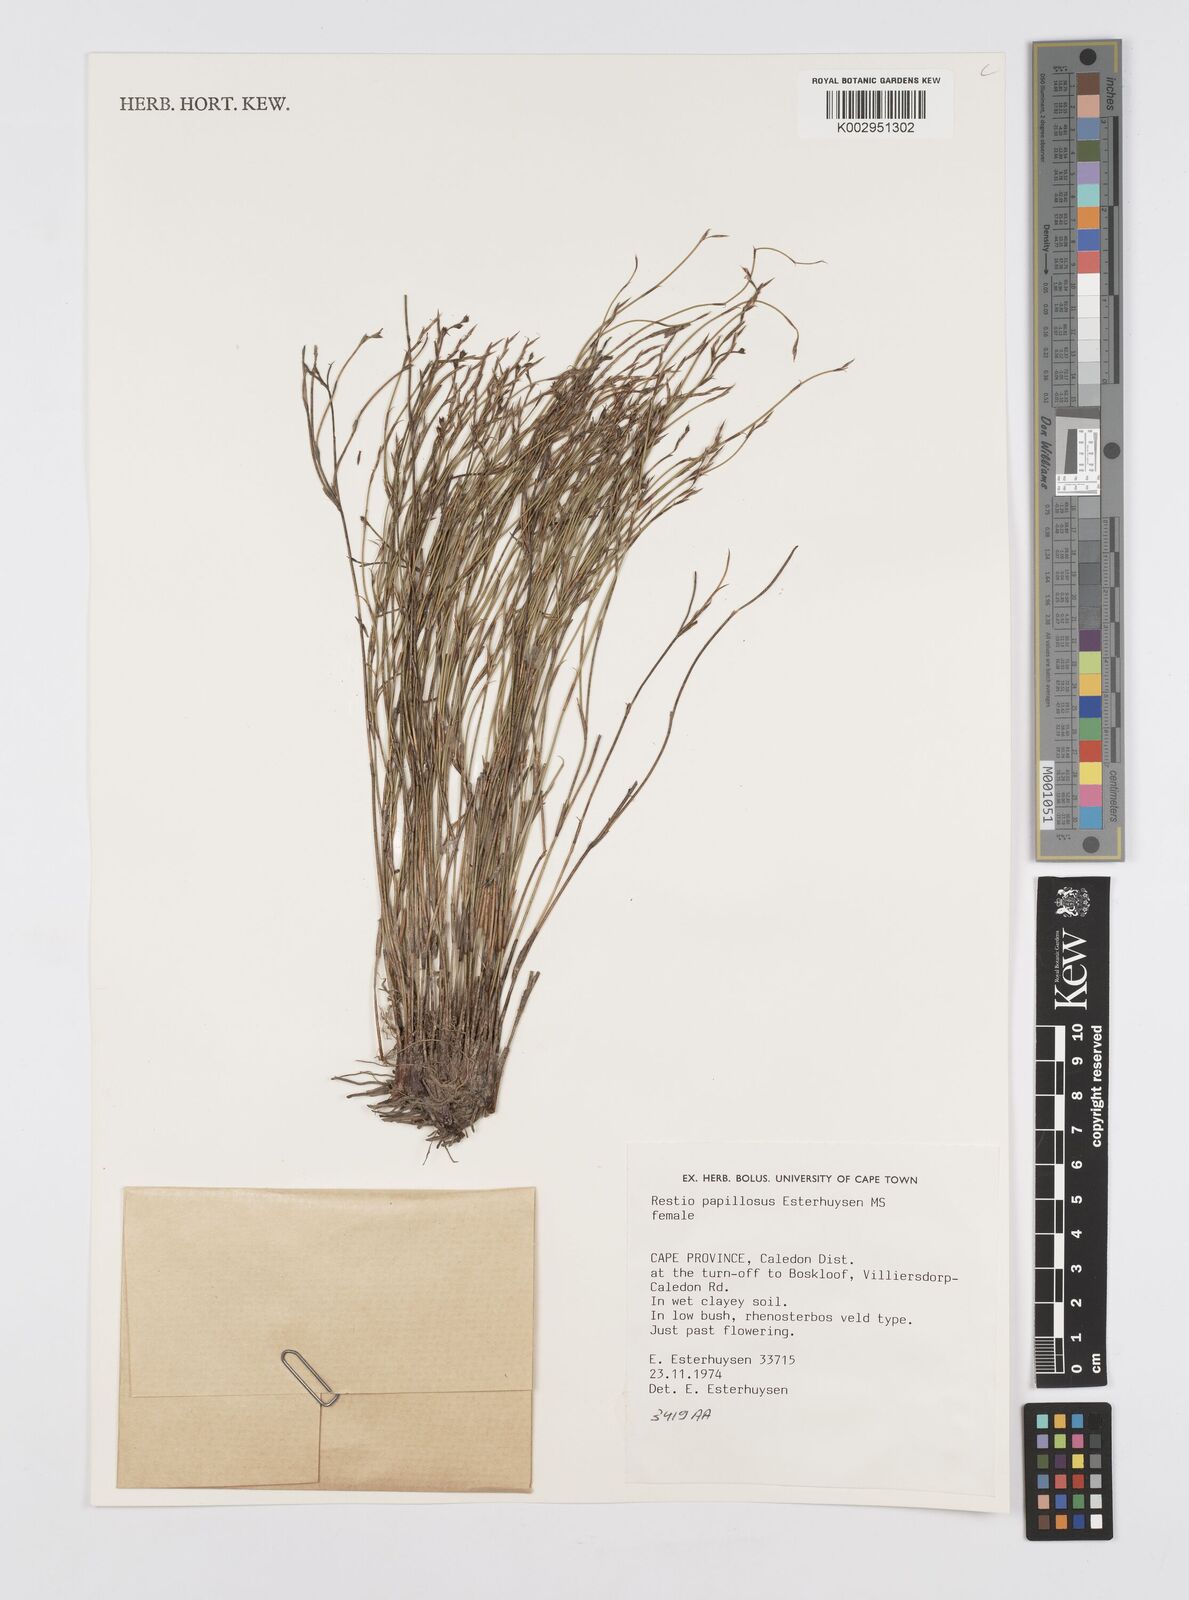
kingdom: Plantae
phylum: Tracheophyta
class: Liliopsida
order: Poales
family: Restionaceae
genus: Restio
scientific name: Restio papillosus
